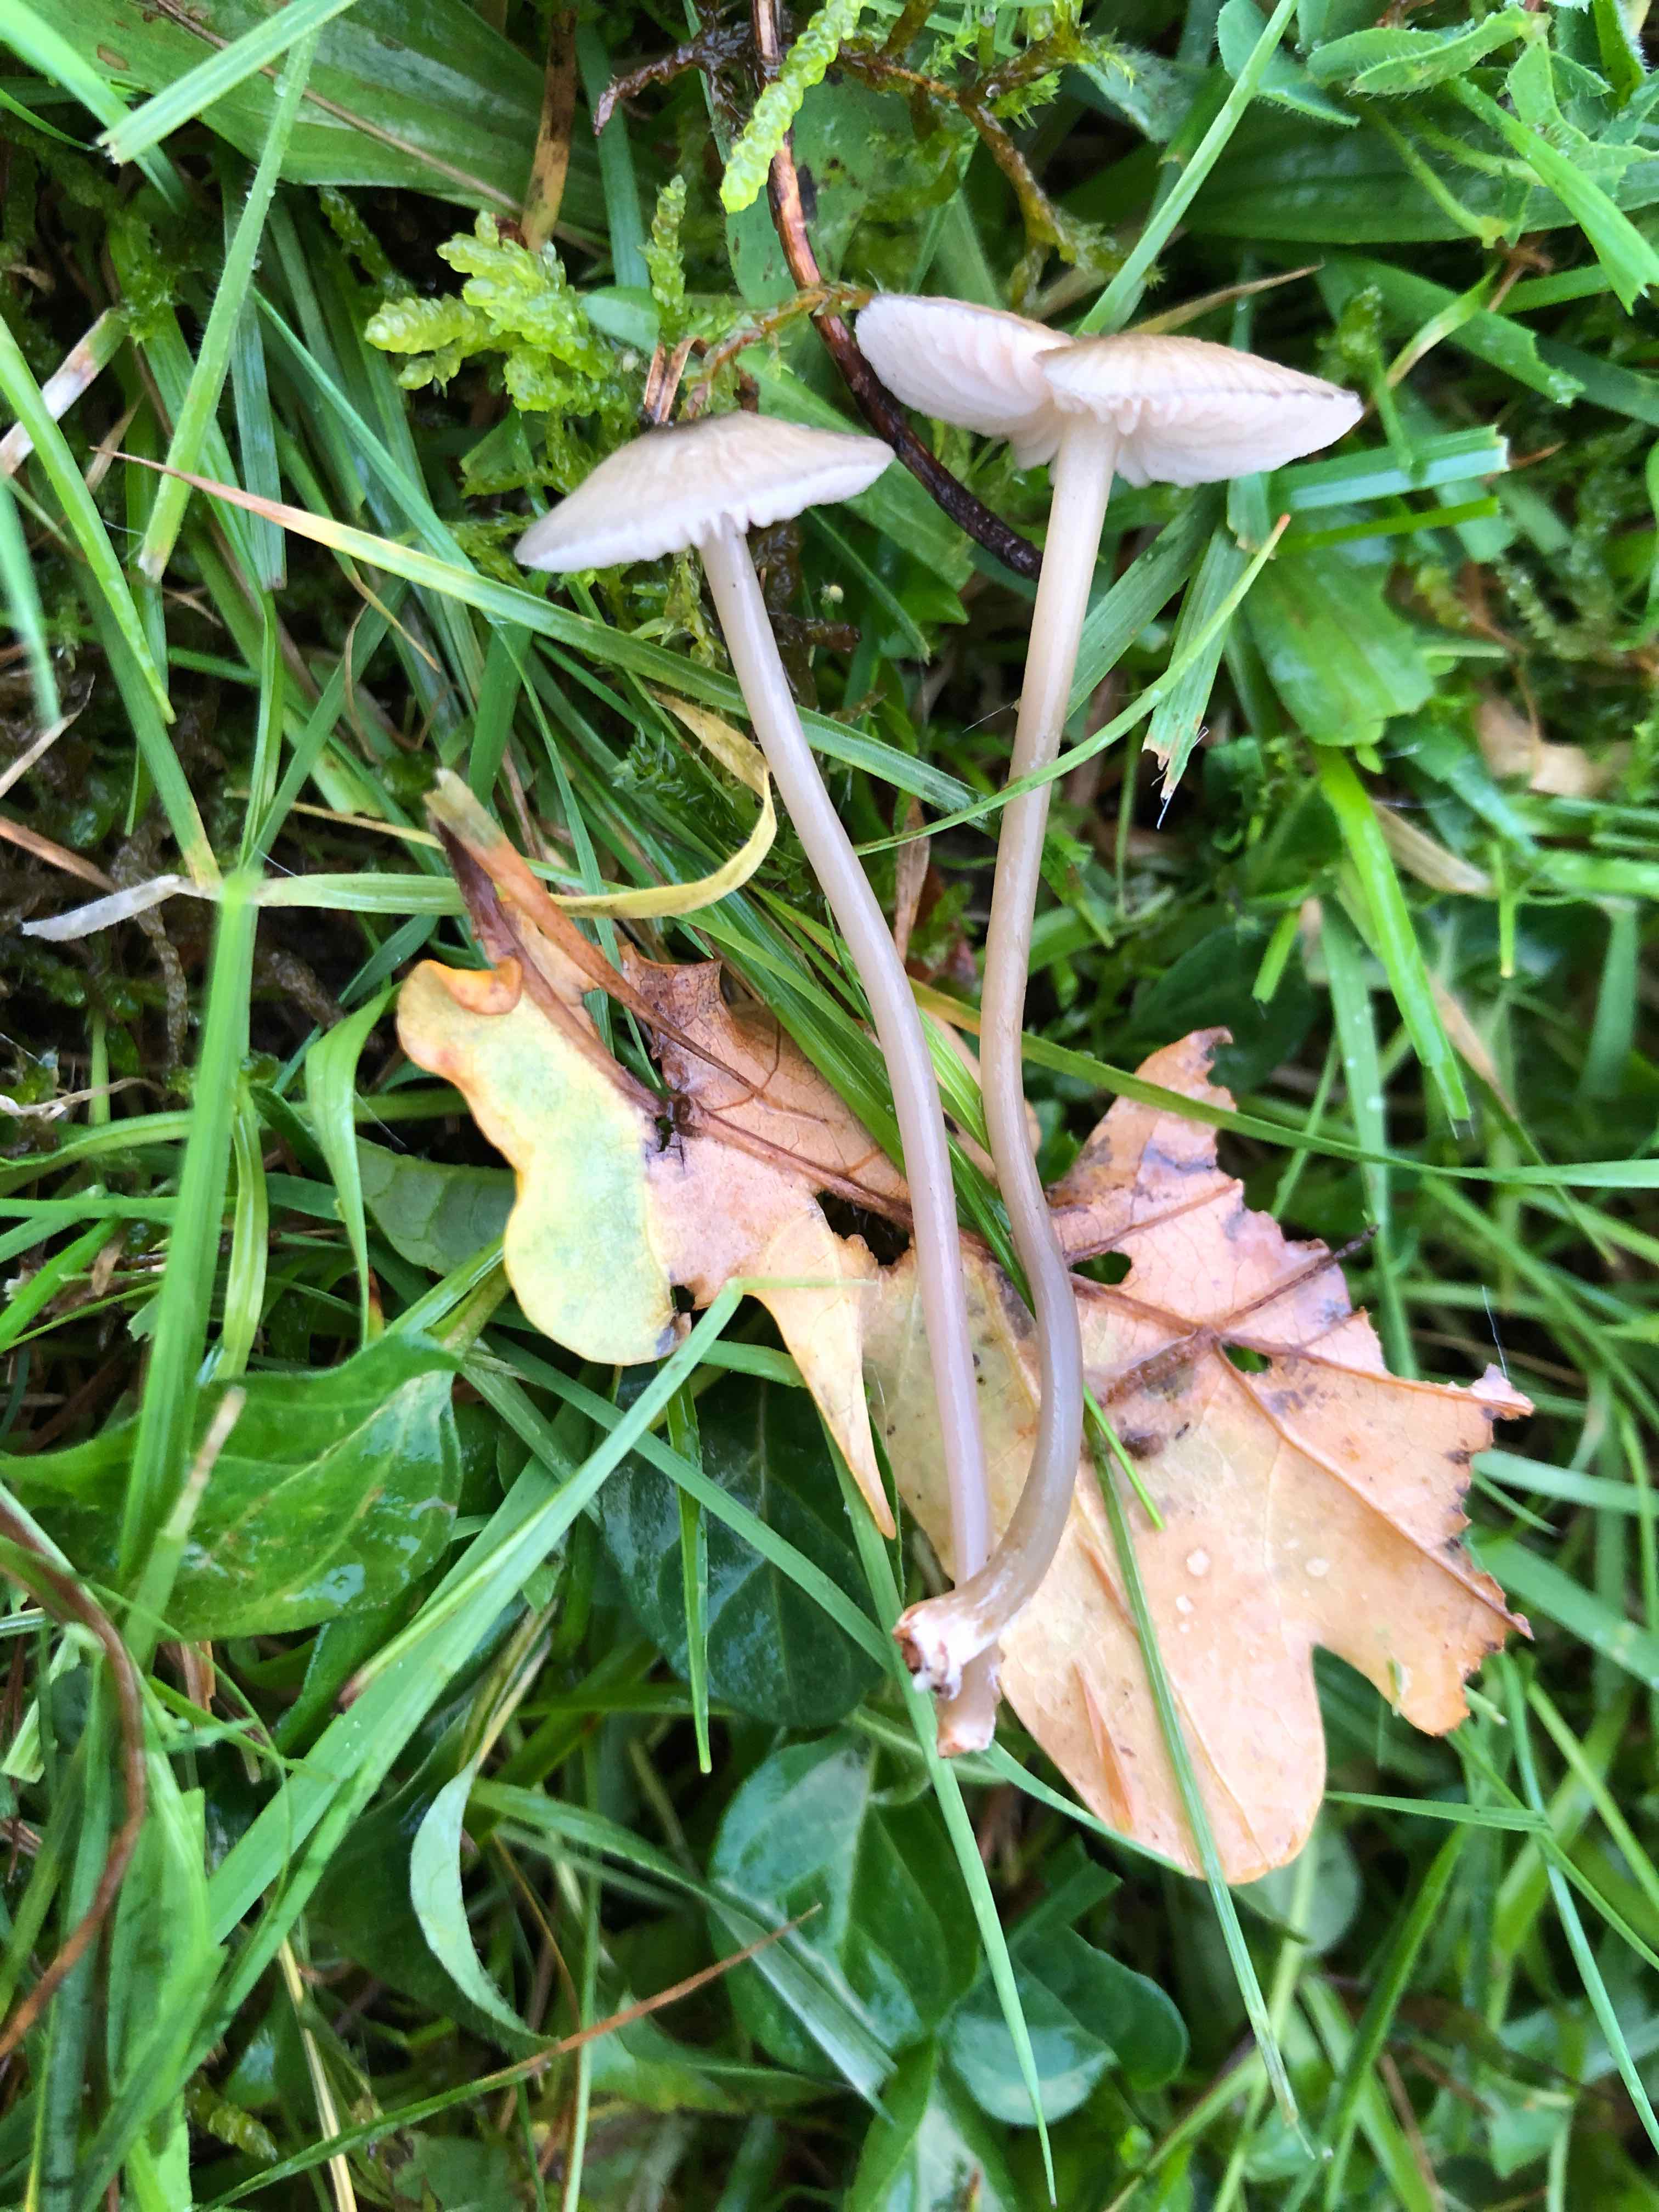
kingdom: Fungi
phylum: Basidiomycota
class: Agaricomycetes
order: Agaricales
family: Entolomataceae
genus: Entoloma
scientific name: Entoloma exile
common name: rødplettet rødblad
